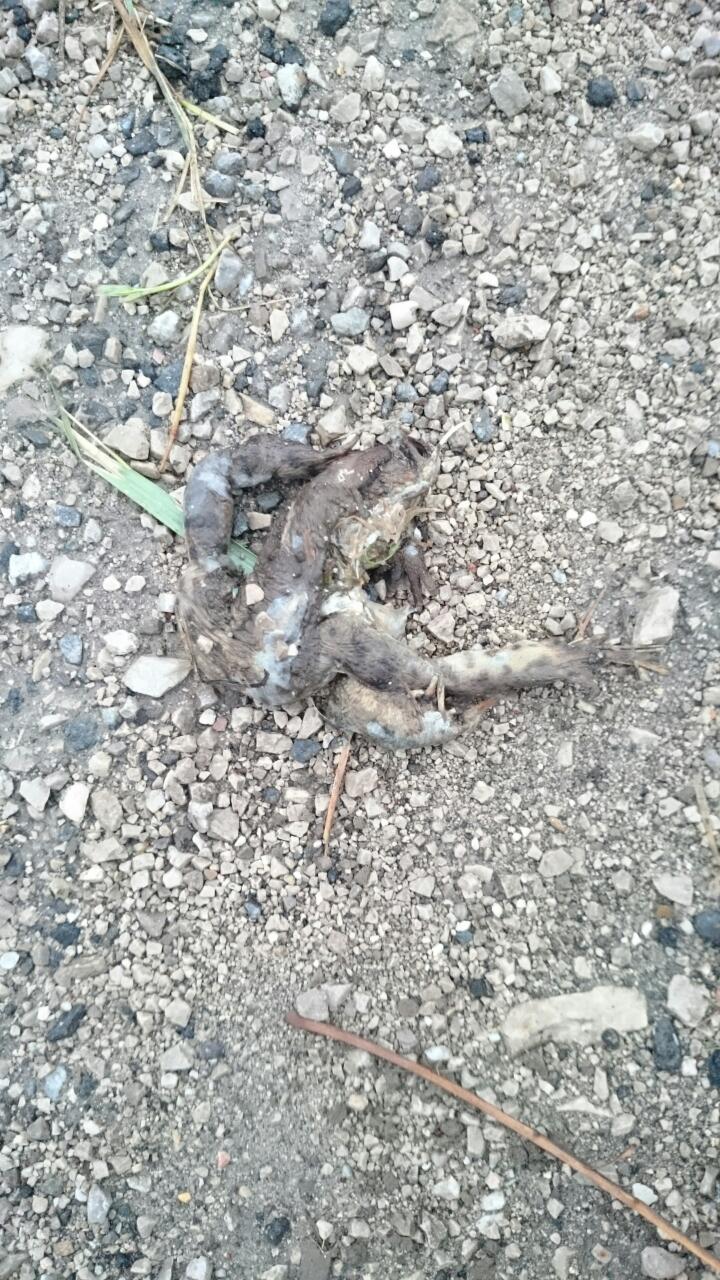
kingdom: Animalia
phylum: Chordata
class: Amphibia
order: Anura
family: Bufonidae
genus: Bufo
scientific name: Bufo bufo
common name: Common toad
